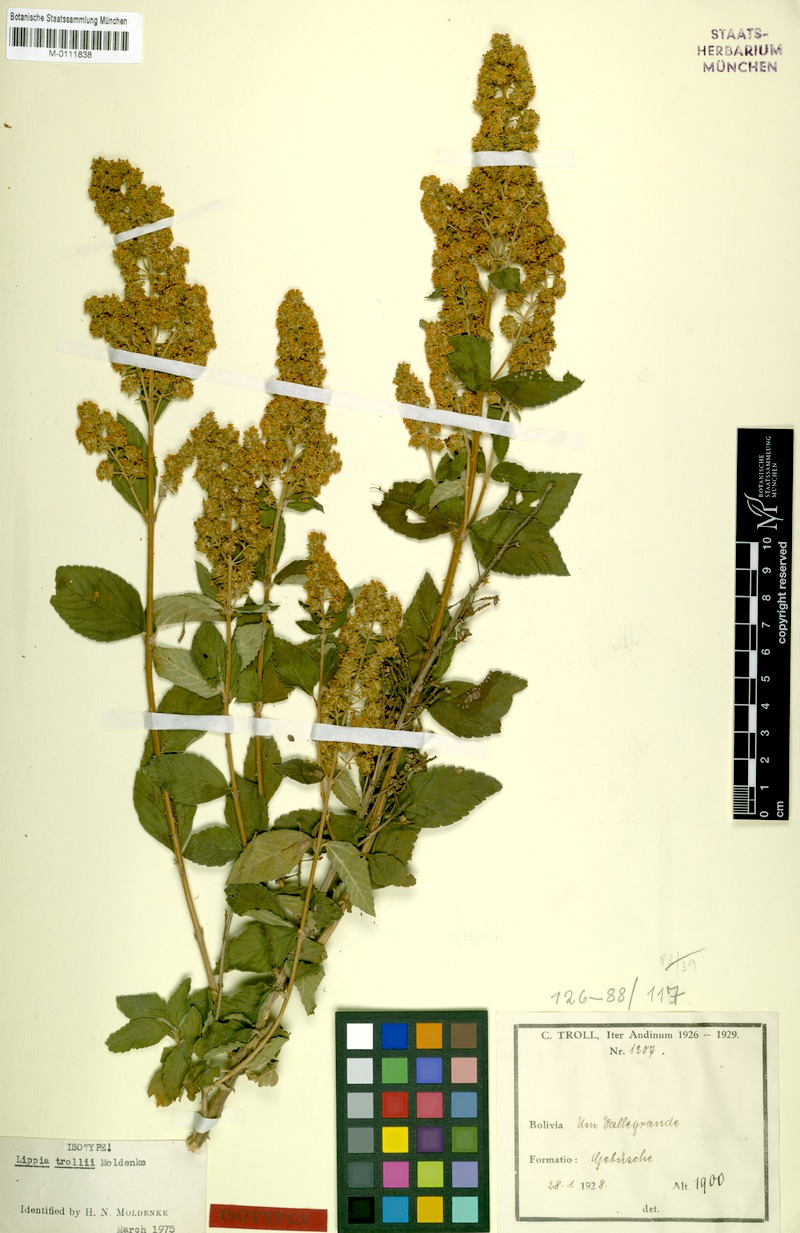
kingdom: Plantae
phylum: Tracheophyta
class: Magnoliopsida
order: Lamiales
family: Verbenaceae
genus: Lippia
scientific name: Lippia trollii
